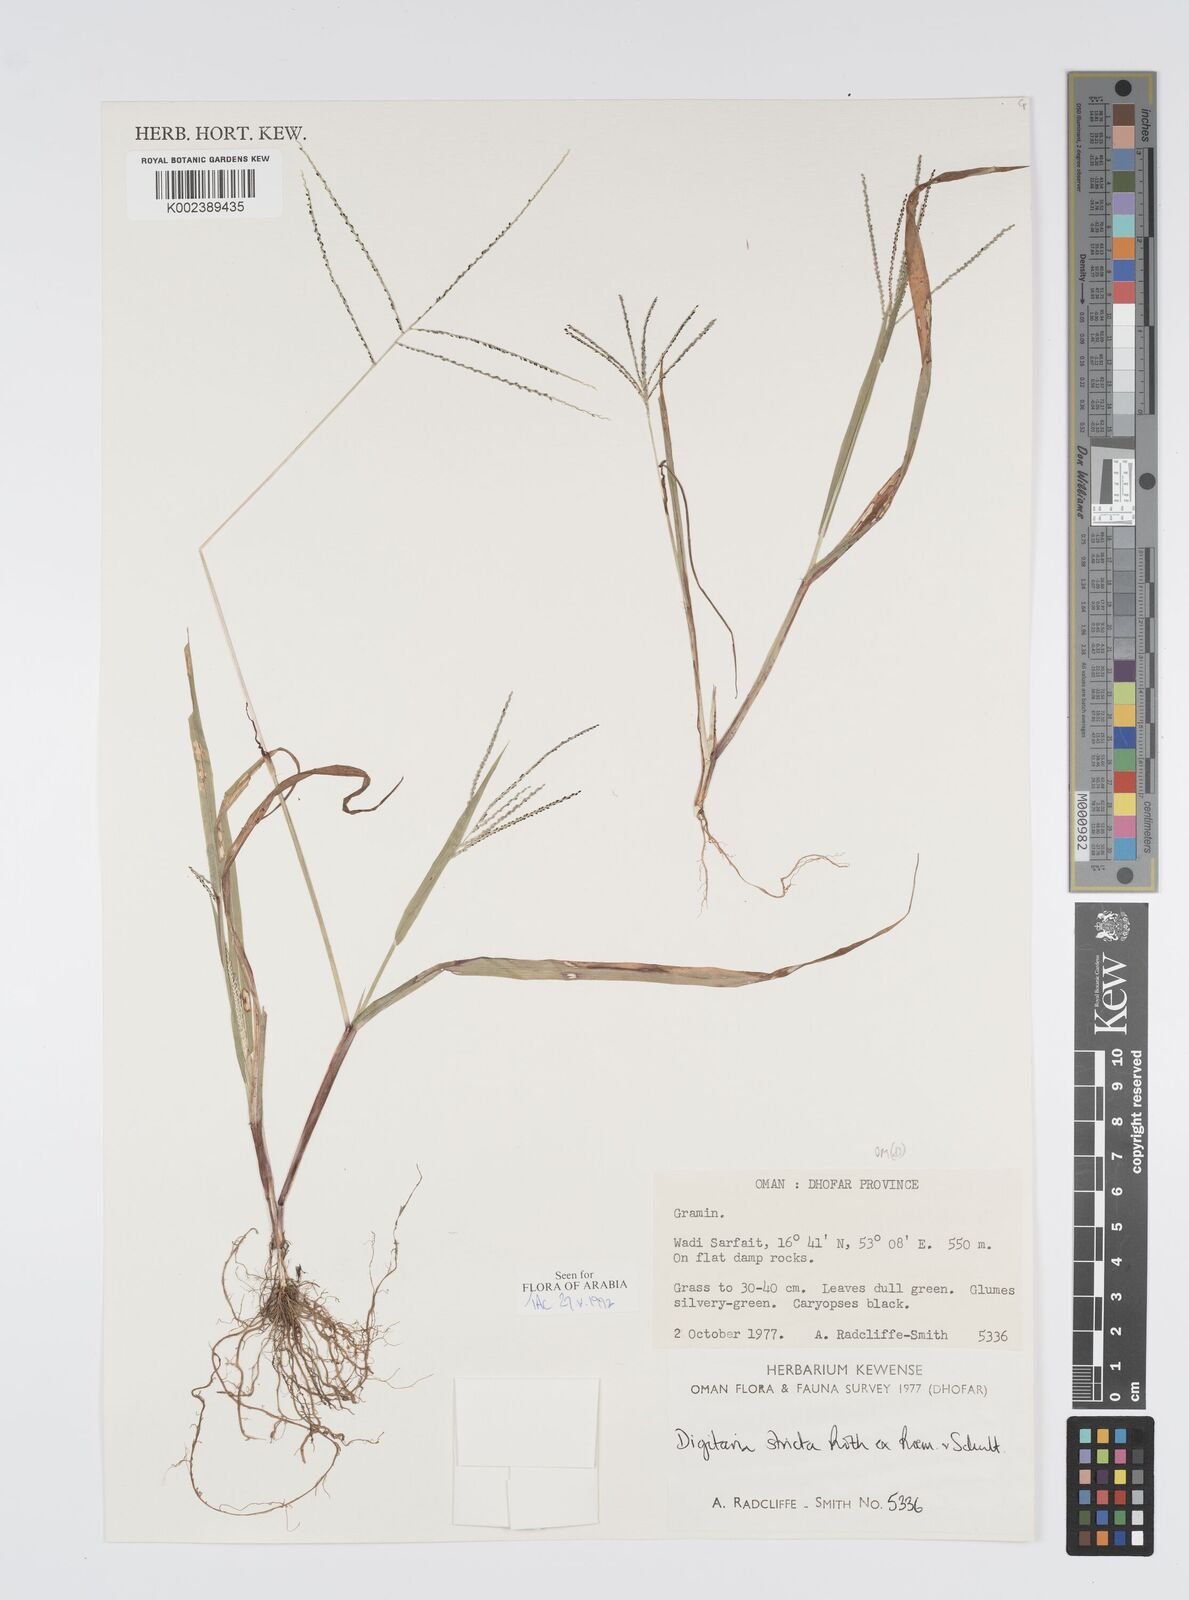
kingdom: Plantae
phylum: Tracheophyta
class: Liliopsida
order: Poales
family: Poaceae
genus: Digitaria
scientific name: Digitaria stricta
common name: Crabgrass
